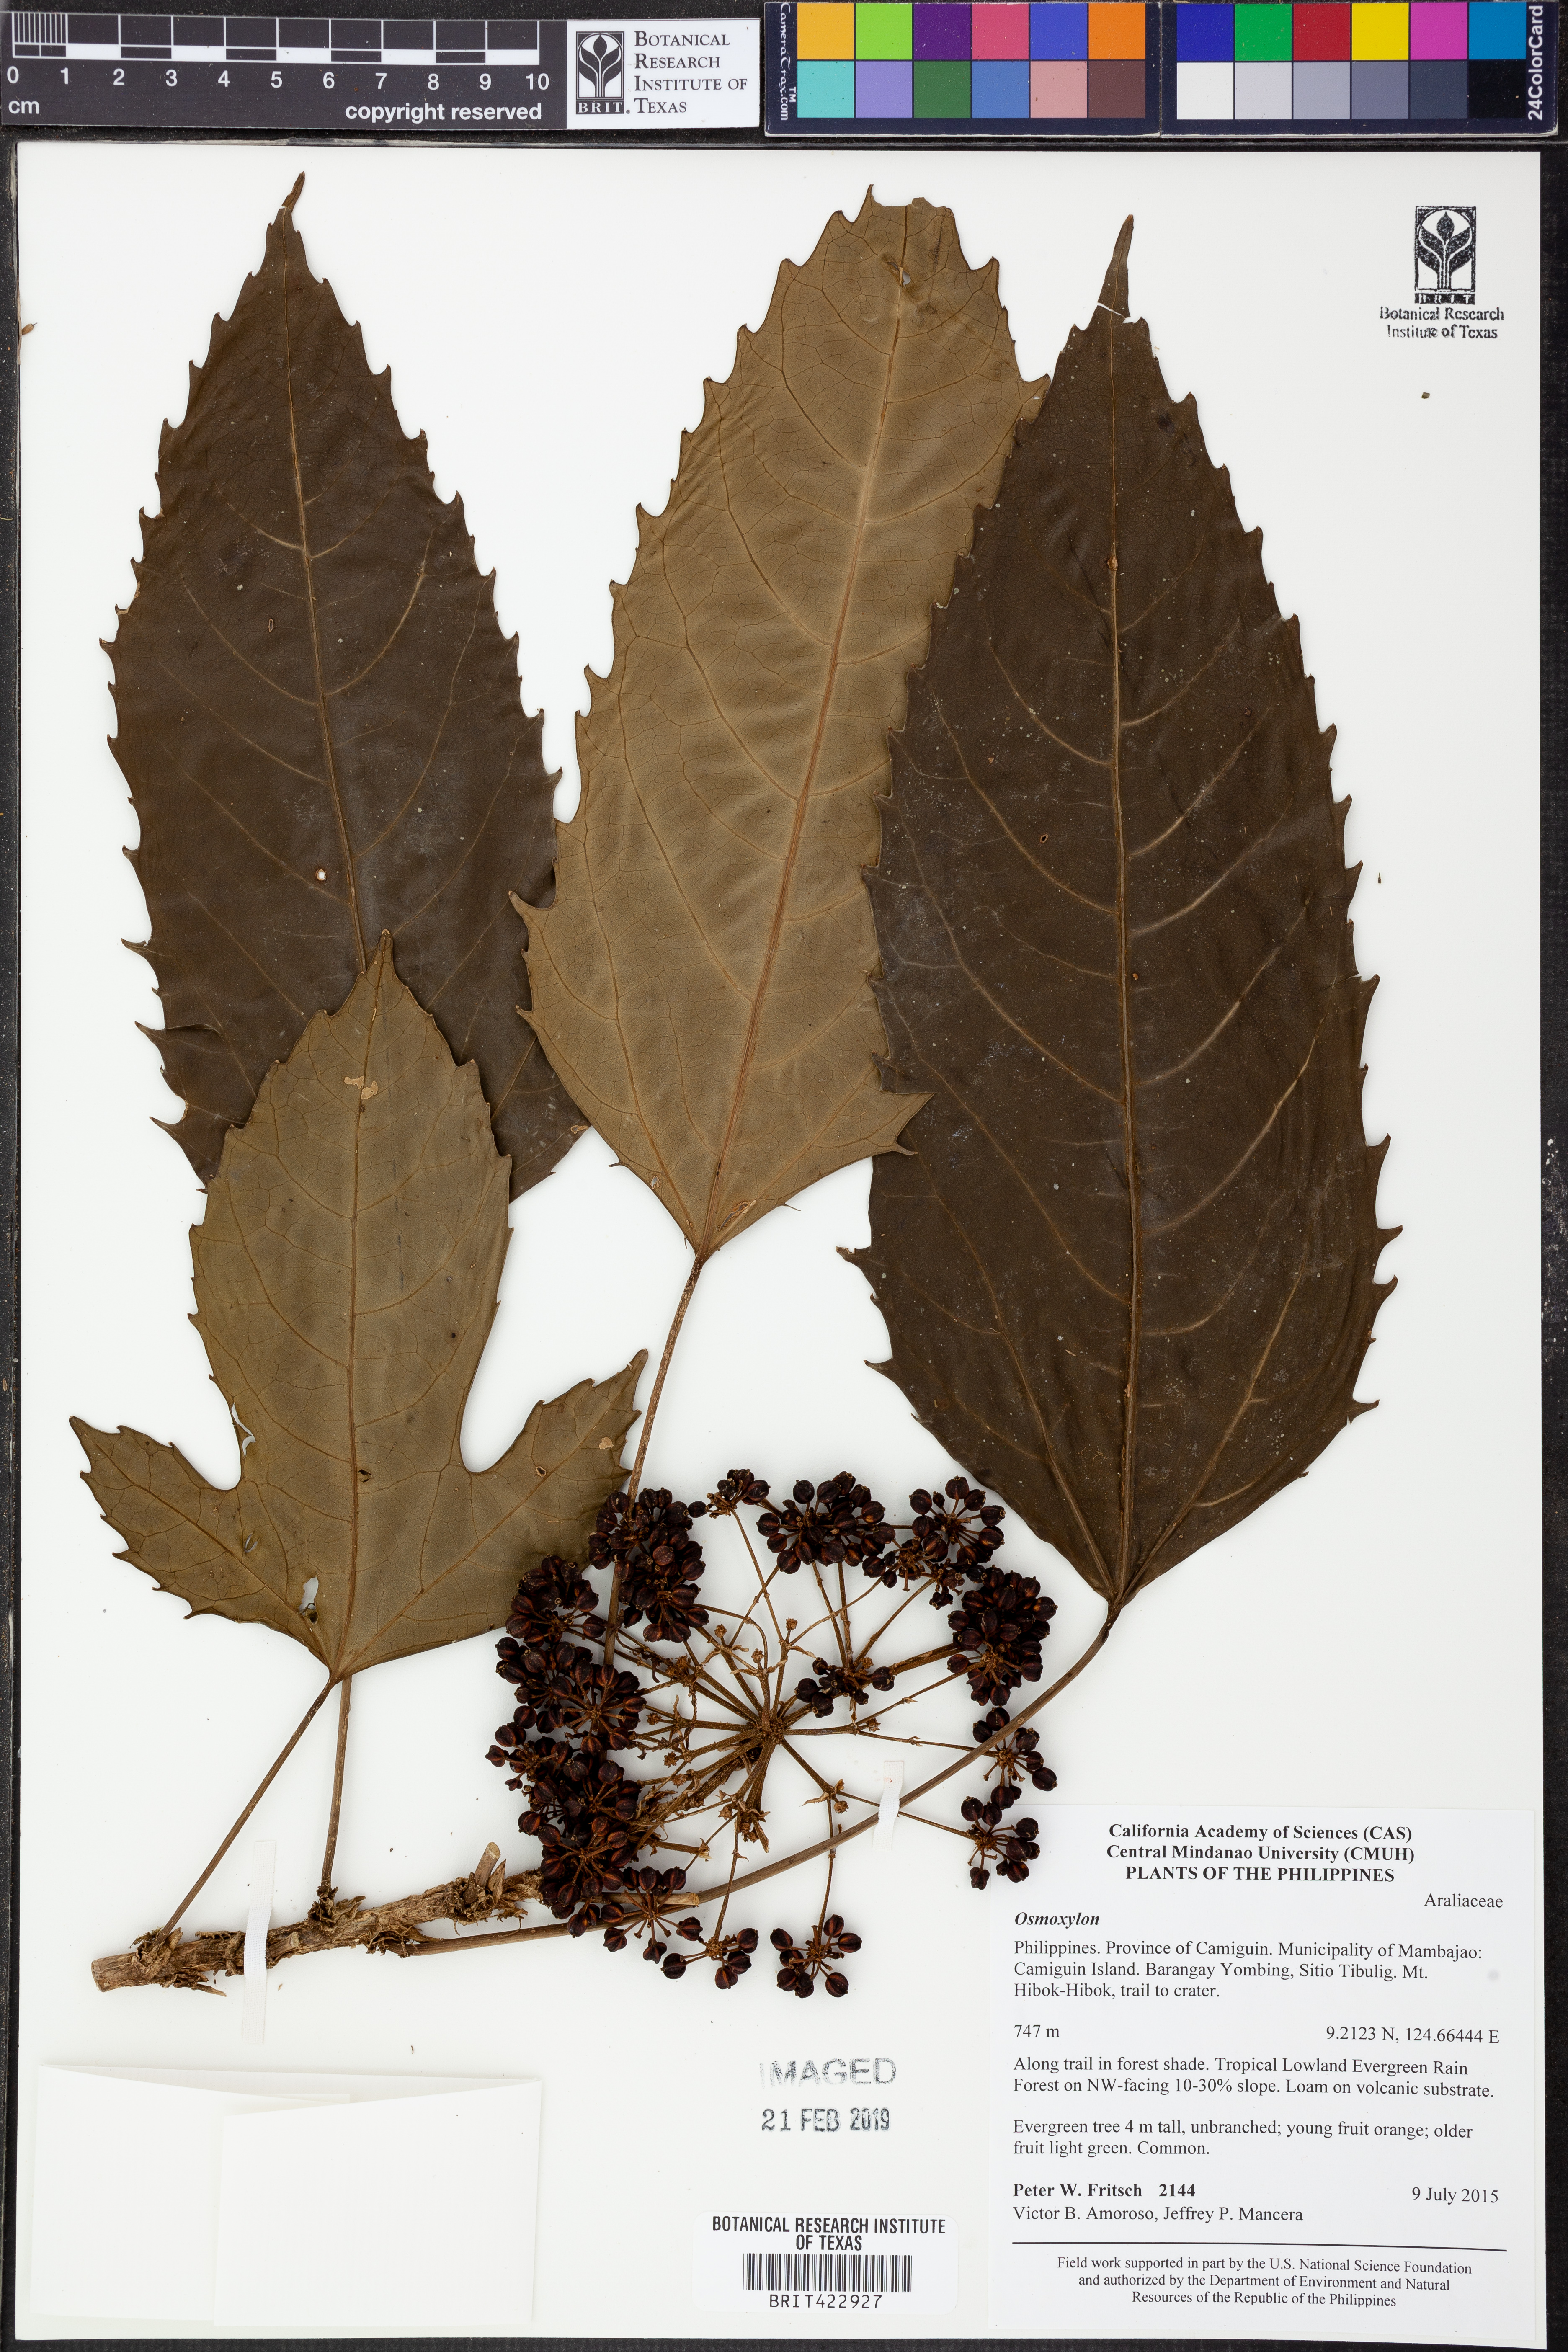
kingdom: Plantae
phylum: Tracheophyta
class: Magnoliopsida
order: Apiales
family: Araliaceae
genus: Osmoxylon
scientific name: Osmoxylon
